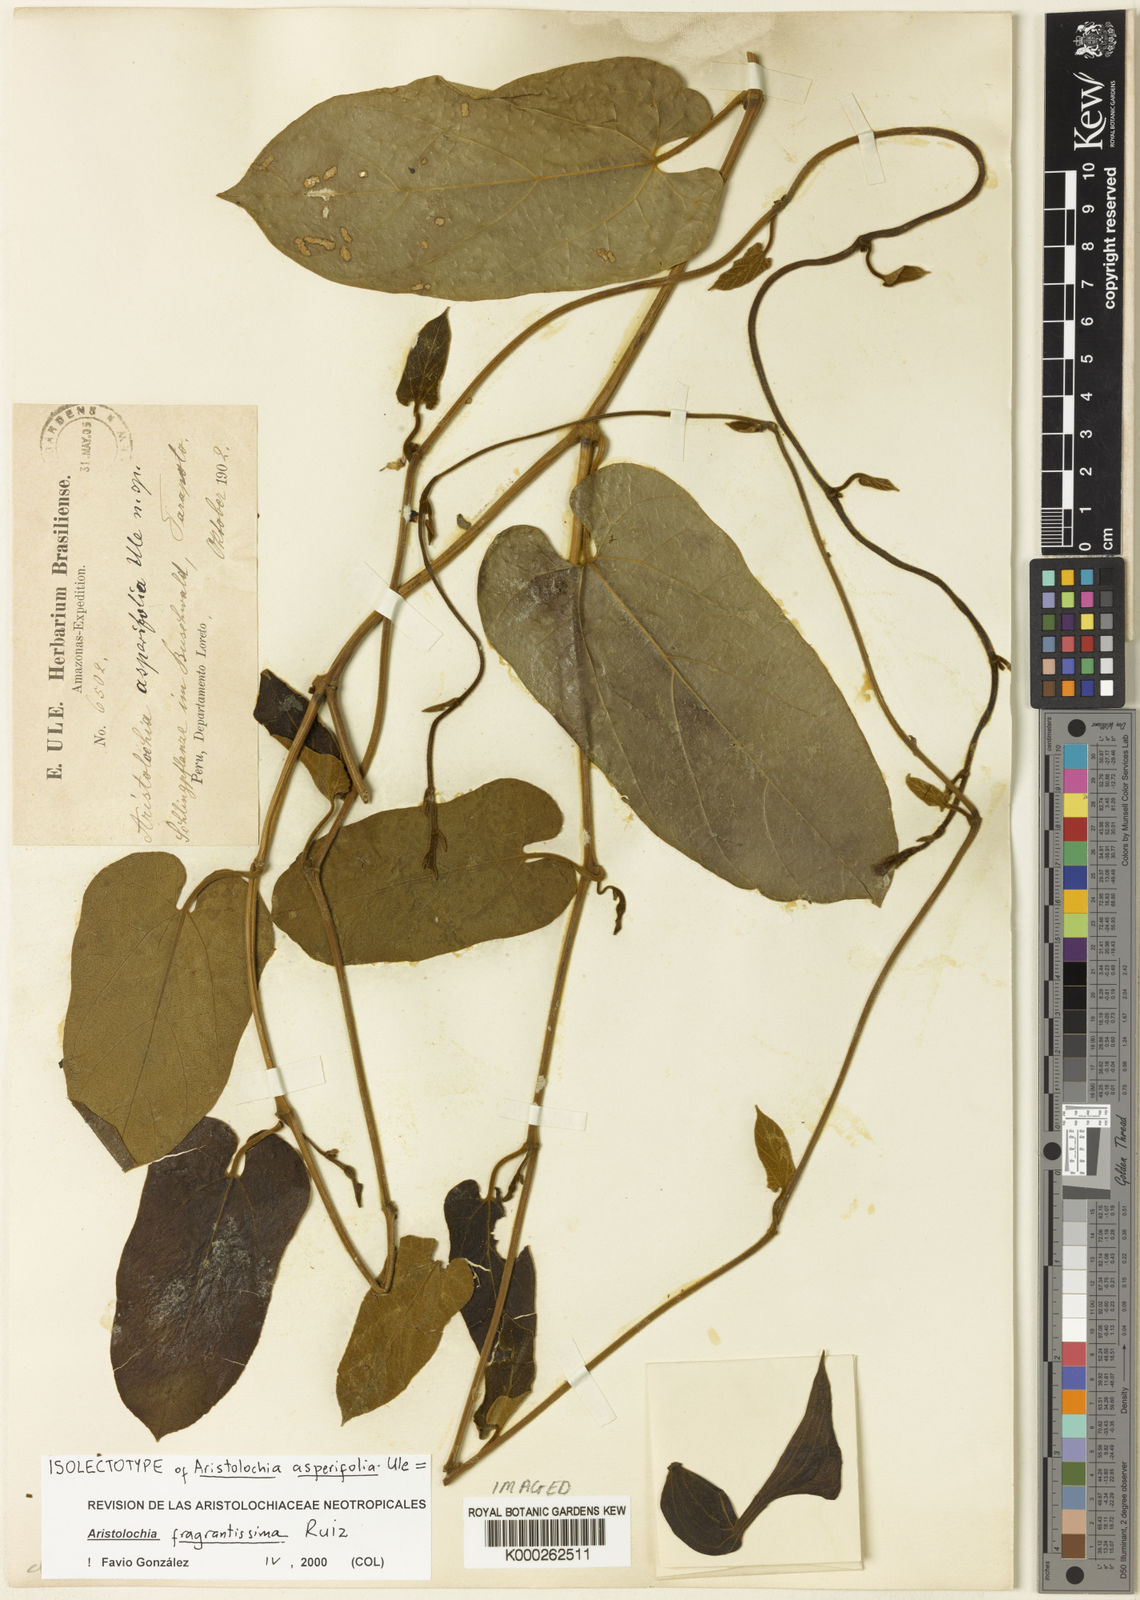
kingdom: Plantae
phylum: Tracheophyta
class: Magnoliopsida
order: Piperales
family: Aristolochiaceae
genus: Aristolochia
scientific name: Aristolochia fragrantissima
